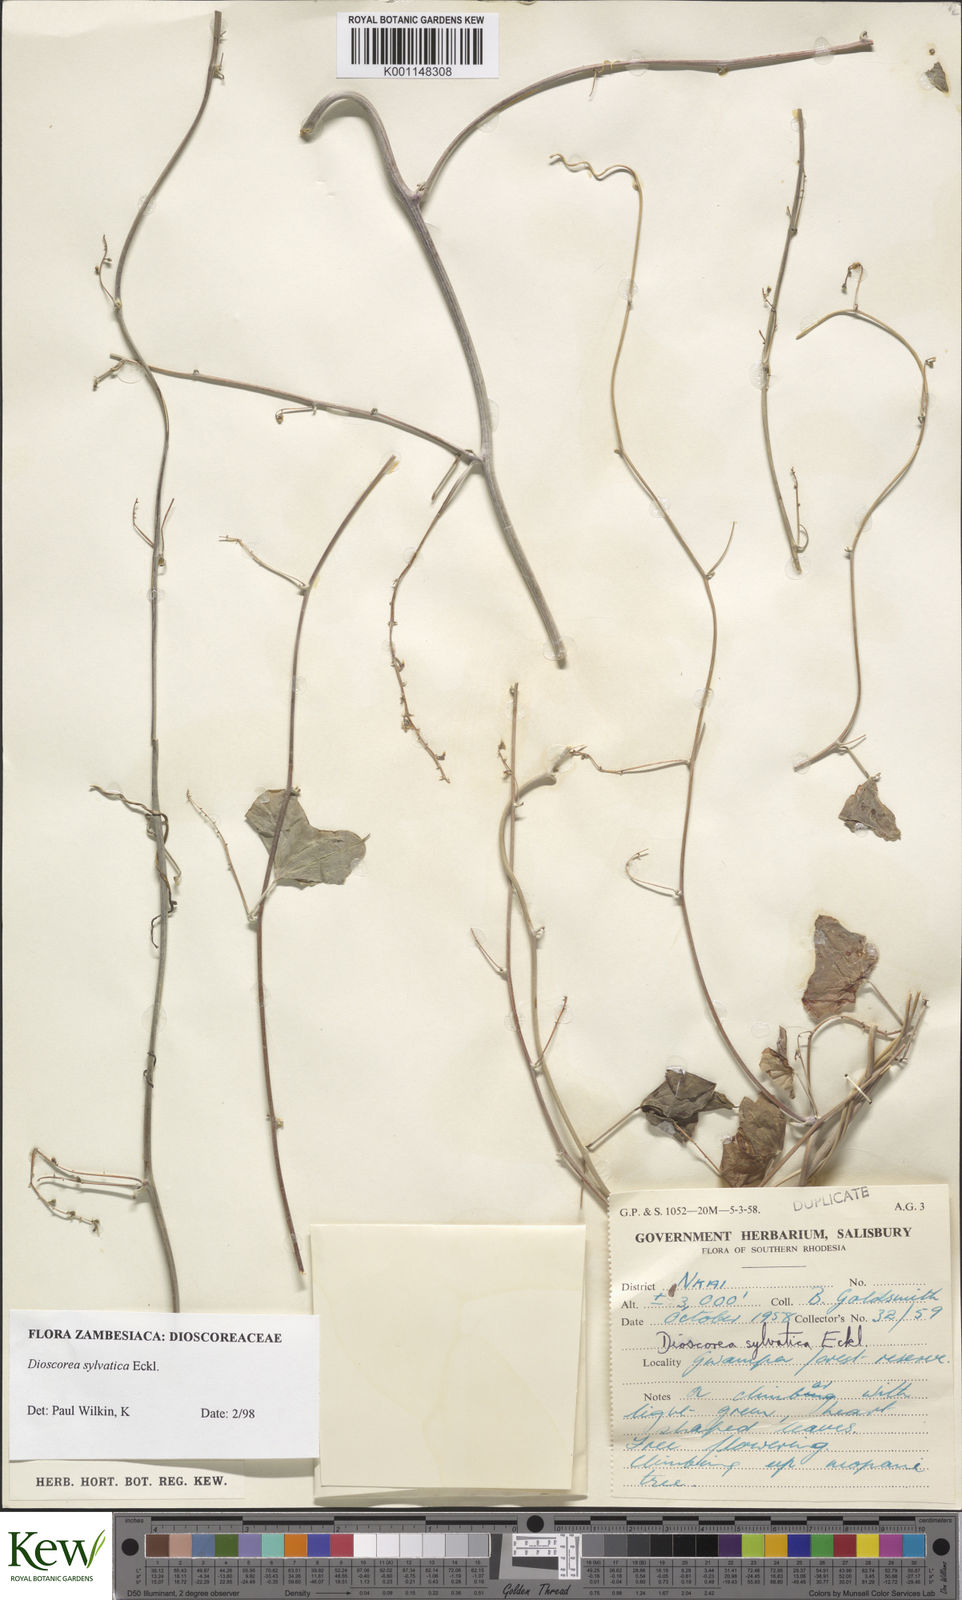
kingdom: Plantae
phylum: Tracheophyta
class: Liliopsida
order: Dioscoreales
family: Dioscoreaceae
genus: Dioscorea
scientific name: Dioscorea sylvatica
